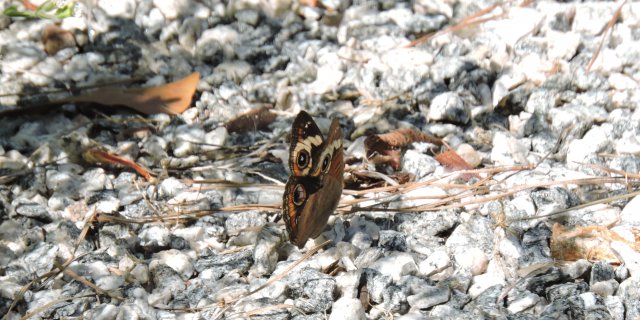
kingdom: Animalia
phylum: Arthropoda
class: Insecta
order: Lepidoptera
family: Nymphalidae
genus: Junonia
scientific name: Junonia coenia
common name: Common Buckeye
